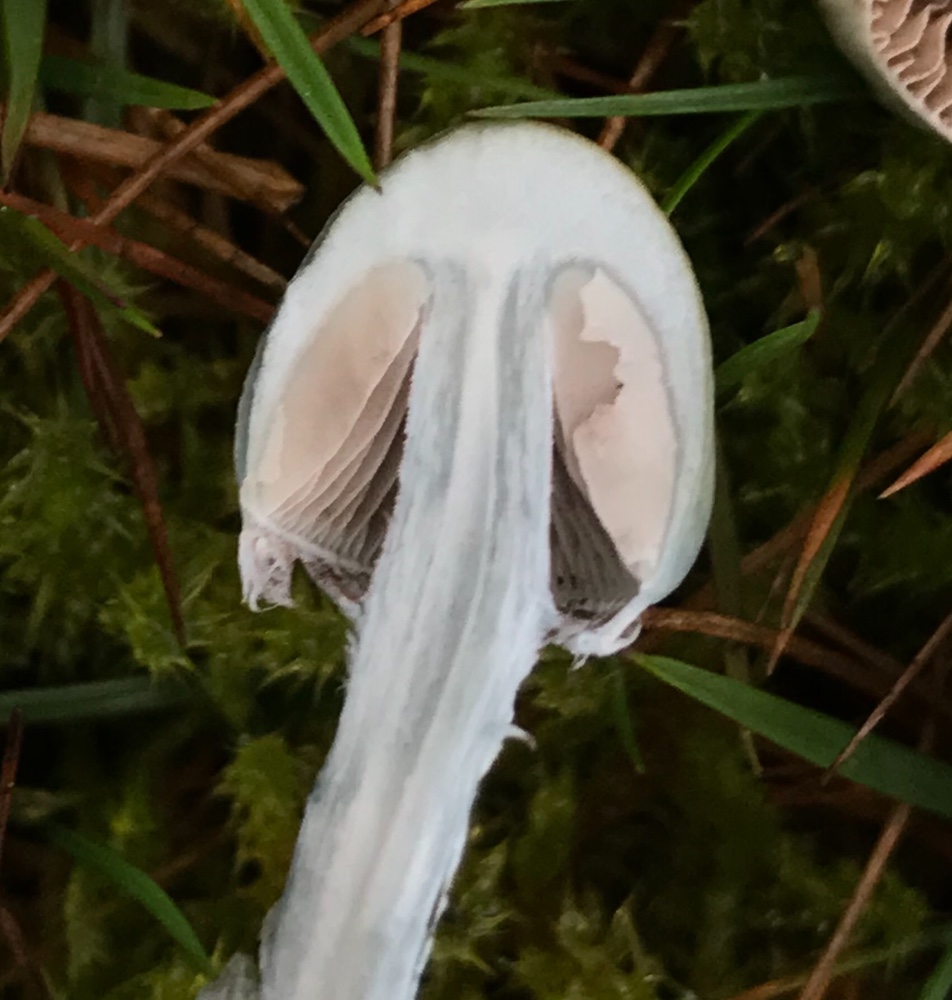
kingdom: Fungi
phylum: Basidiomycota
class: Agaricomycetes
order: Agaricales
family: Strophariaceae
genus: Stropharia
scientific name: Stropharia cyanea
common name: blågrøn bredblad
